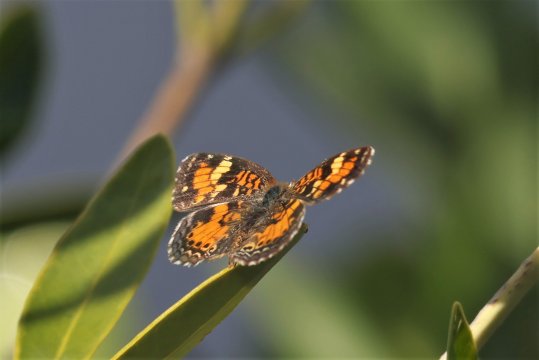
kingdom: Animalia
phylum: Arthropoda
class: Insecta
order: Lepidoptera
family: Nymphalidae
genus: Phyciodes
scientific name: Phyciodes phaon
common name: Phaon Crescent
